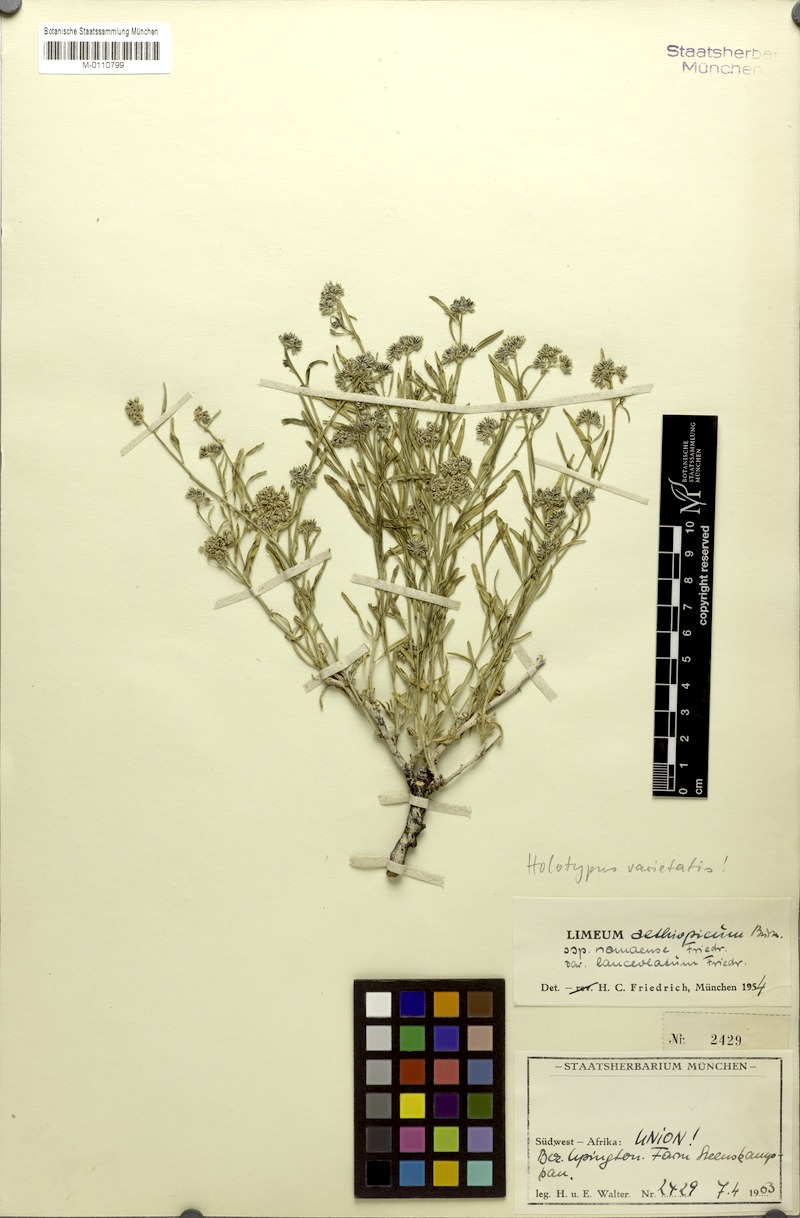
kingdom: Plantae
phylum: Tracheophyta
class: Magnoliopsida
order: Caryophyllales
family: Limeaceae
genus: Limeum
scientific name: Limeum aethiopicum
